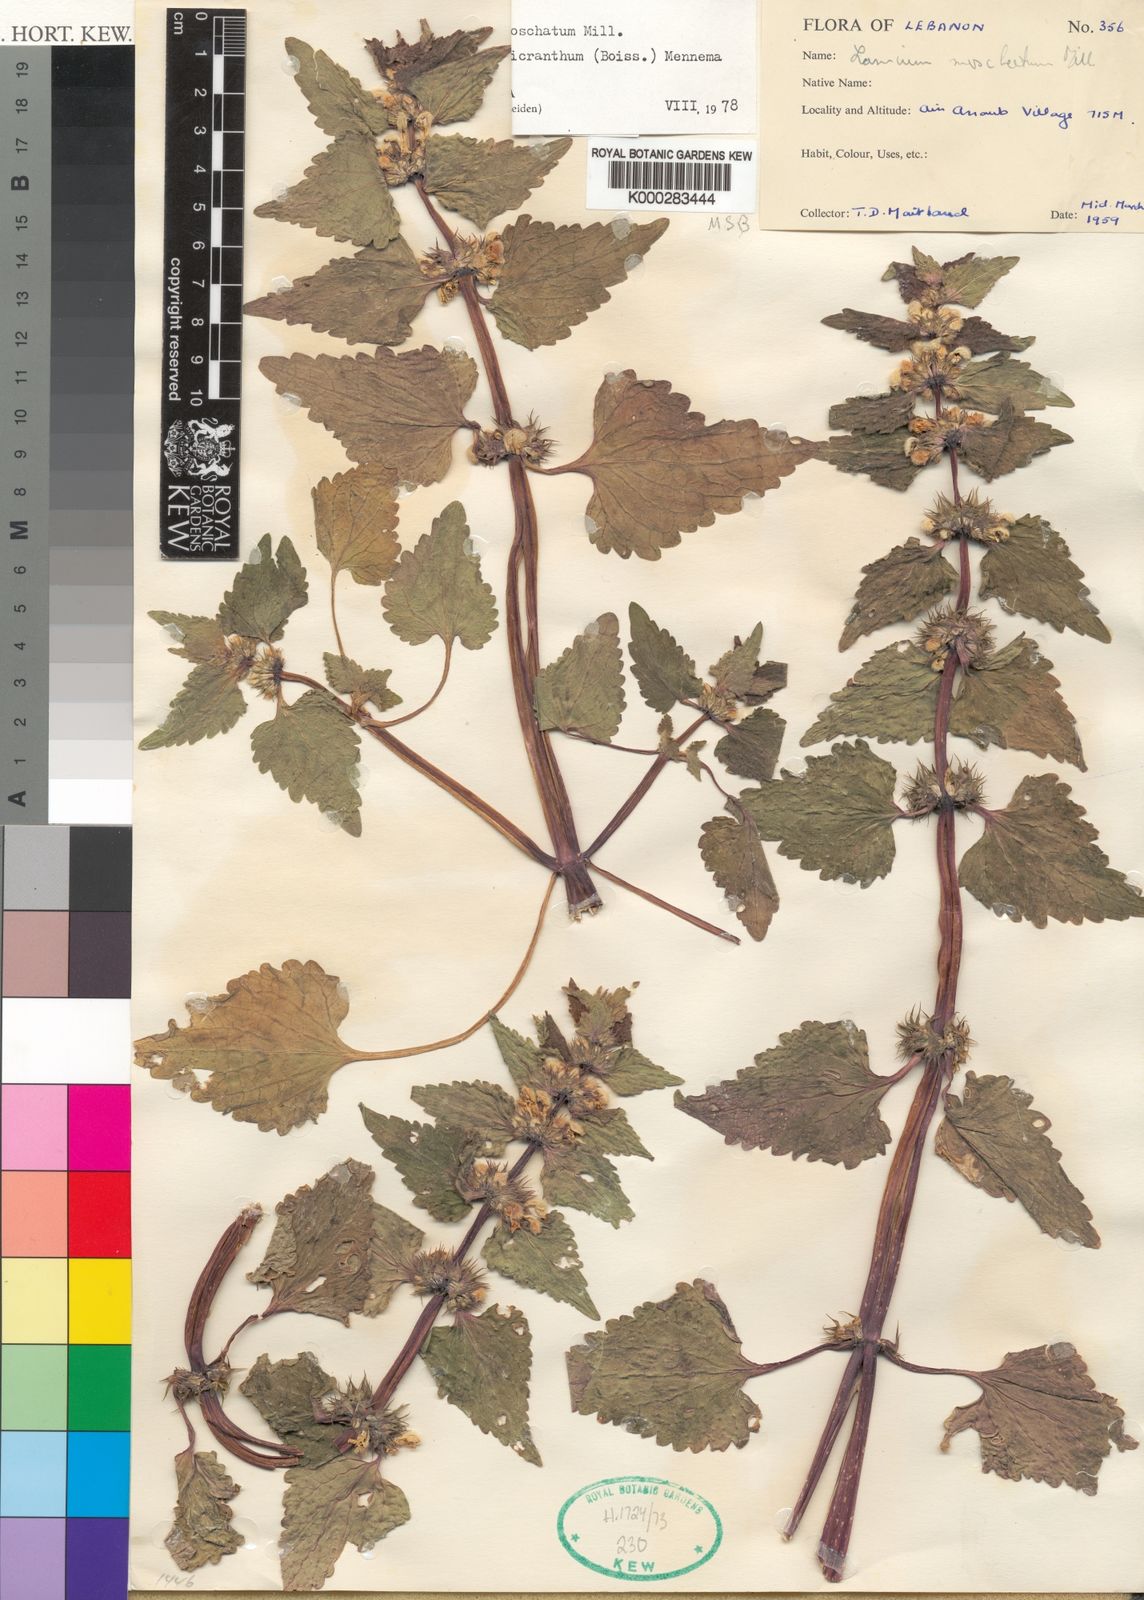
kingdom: Plantae
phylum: Tracheophyta
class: Magnoliopsida
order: Lamiales
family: Lamiaceae
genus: Lamium
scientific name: Lamium moschatum
